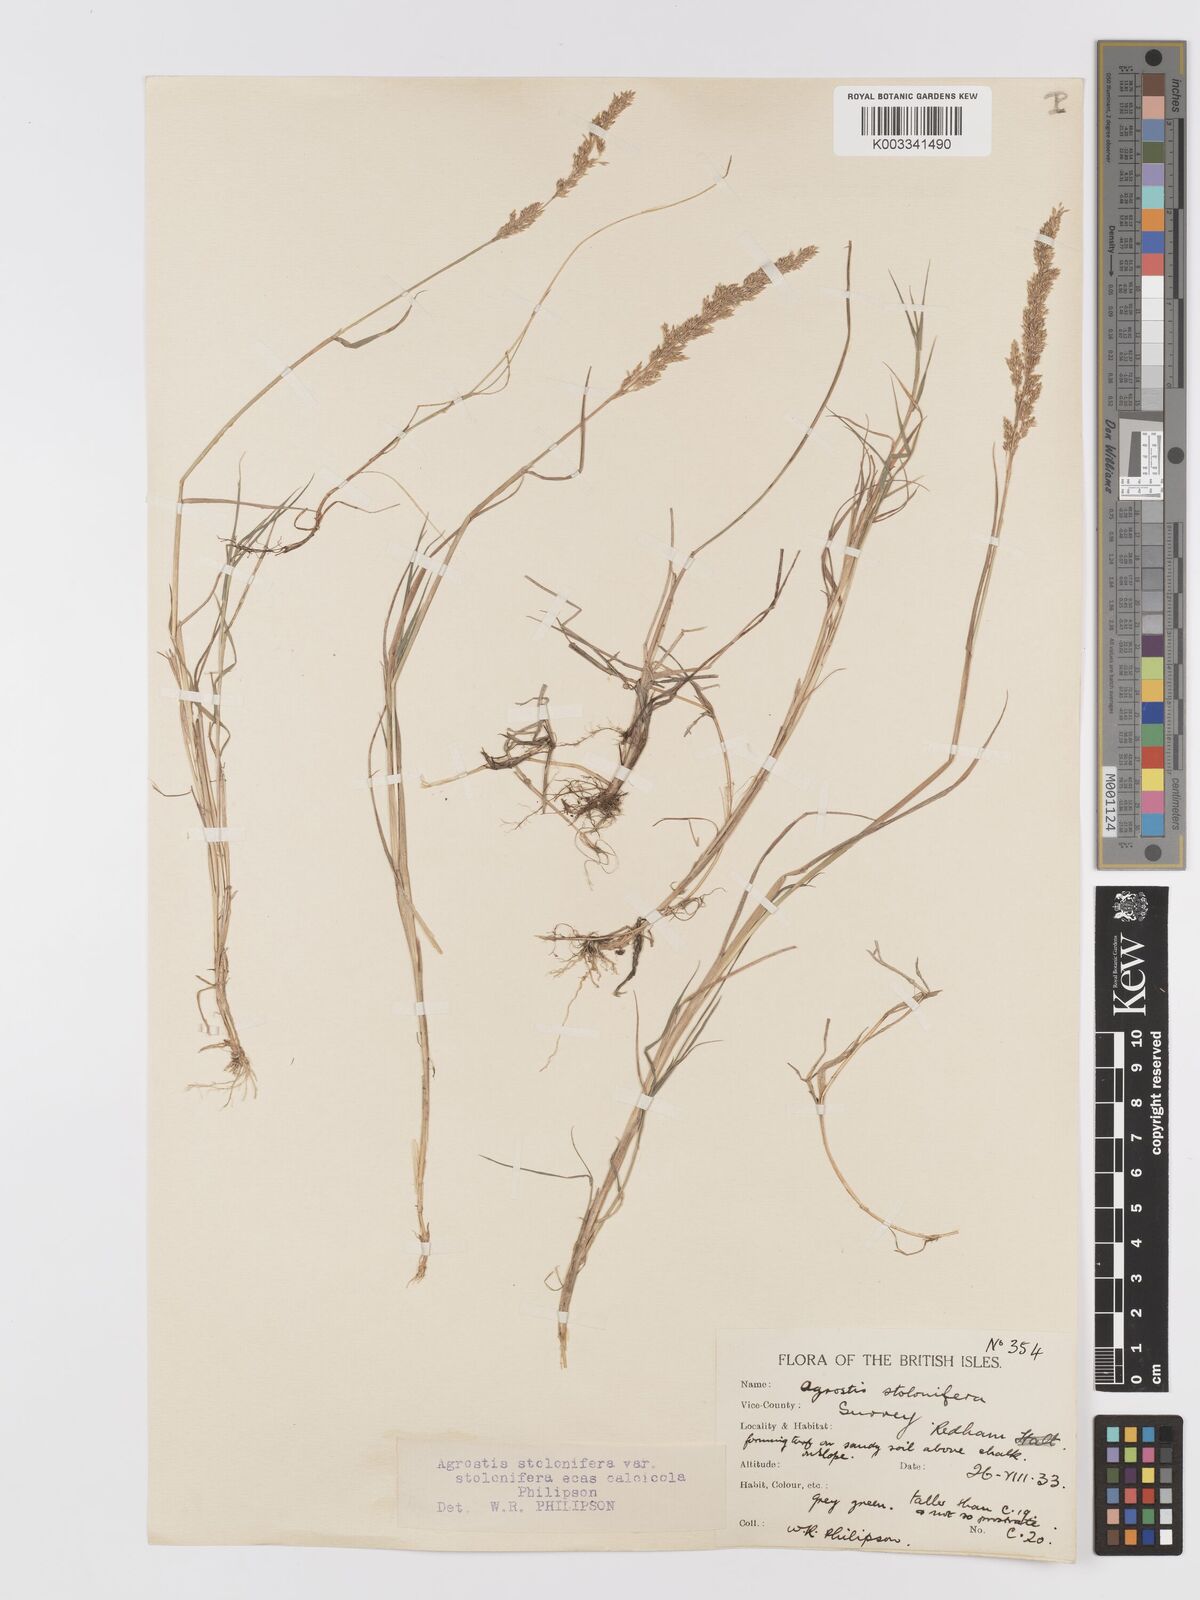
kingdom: Plantae
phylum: Tracheophyta
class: Liliopsida
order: Poales
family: Poaceae
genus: Agrostis
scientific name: Agrostis stolonifera
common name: Creeping bentgrass
